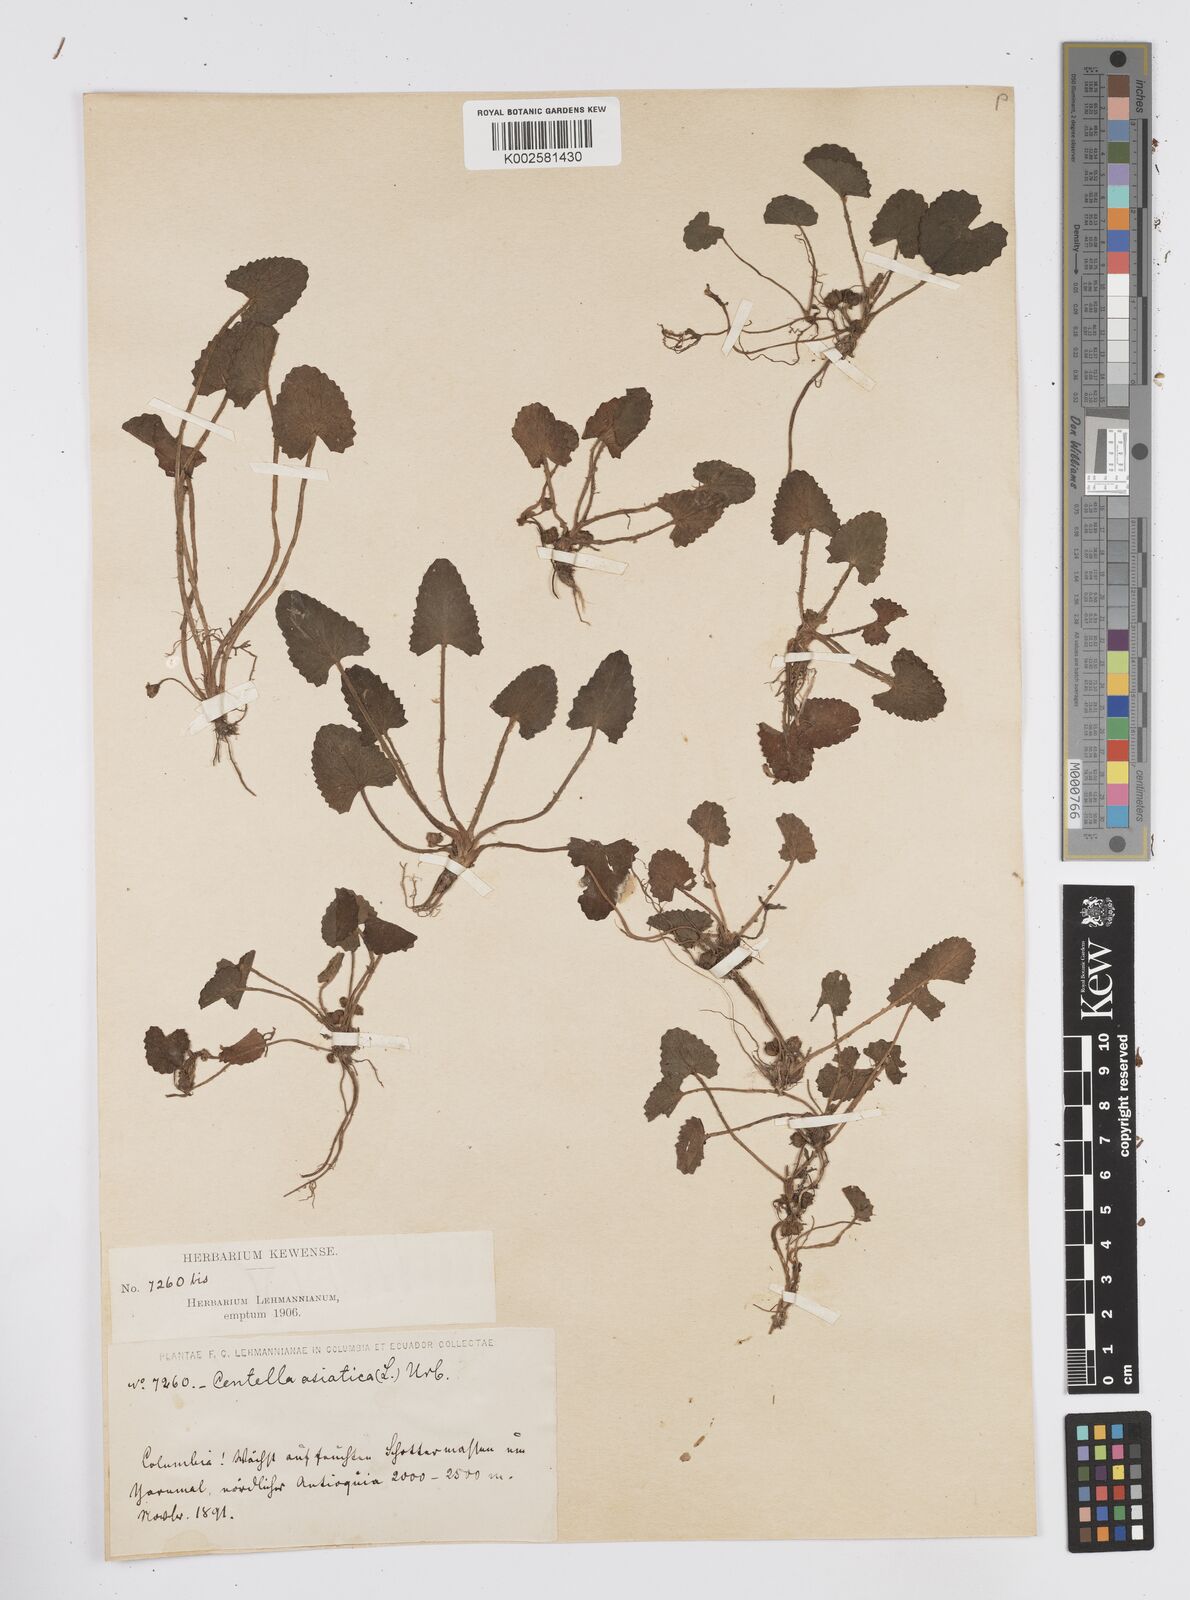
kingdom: Plantae
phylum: Tracheophyta
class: Magnoliopsida
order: Apiales
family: Apiaceae
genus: Centella
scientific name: Centella asiatica
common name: Spadeleaf
